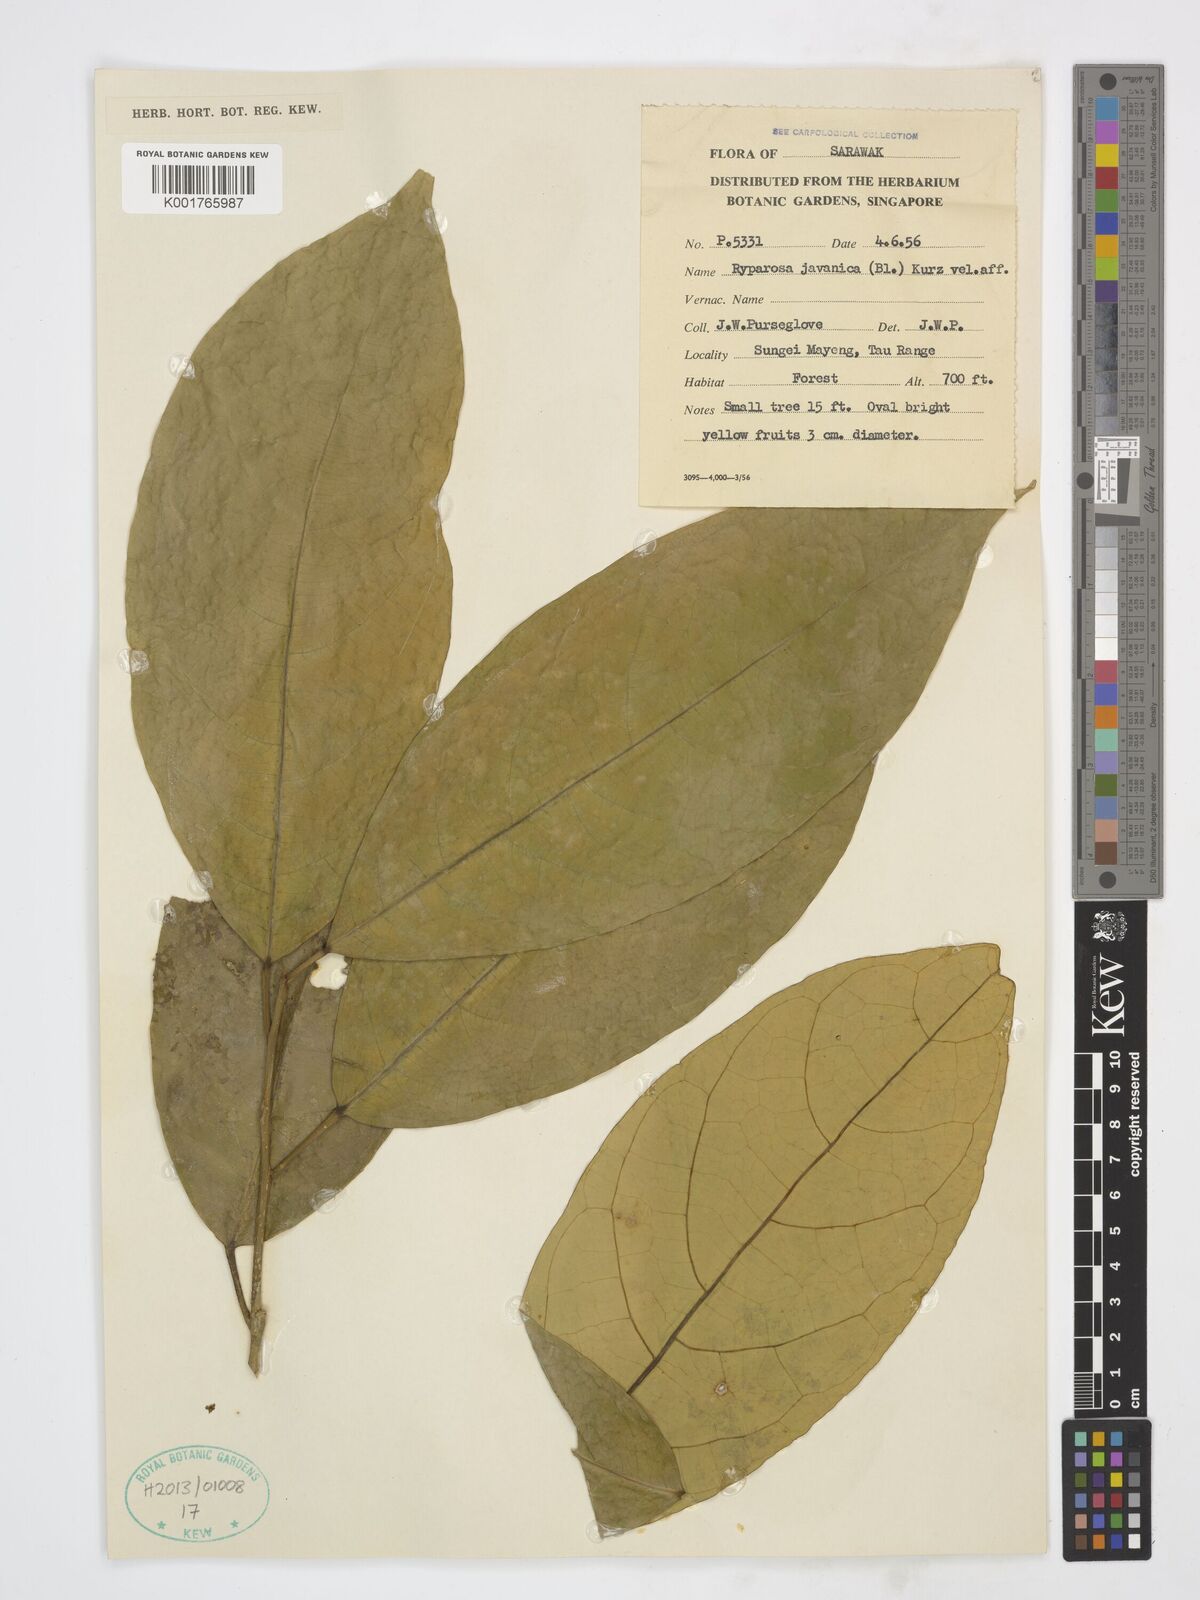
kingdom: Plantae
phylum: Tracheophyta
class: Magnoliopsida
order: Malpighiales
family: Achariaceae
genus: Ryparosa
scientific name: Ryparosa javanica
